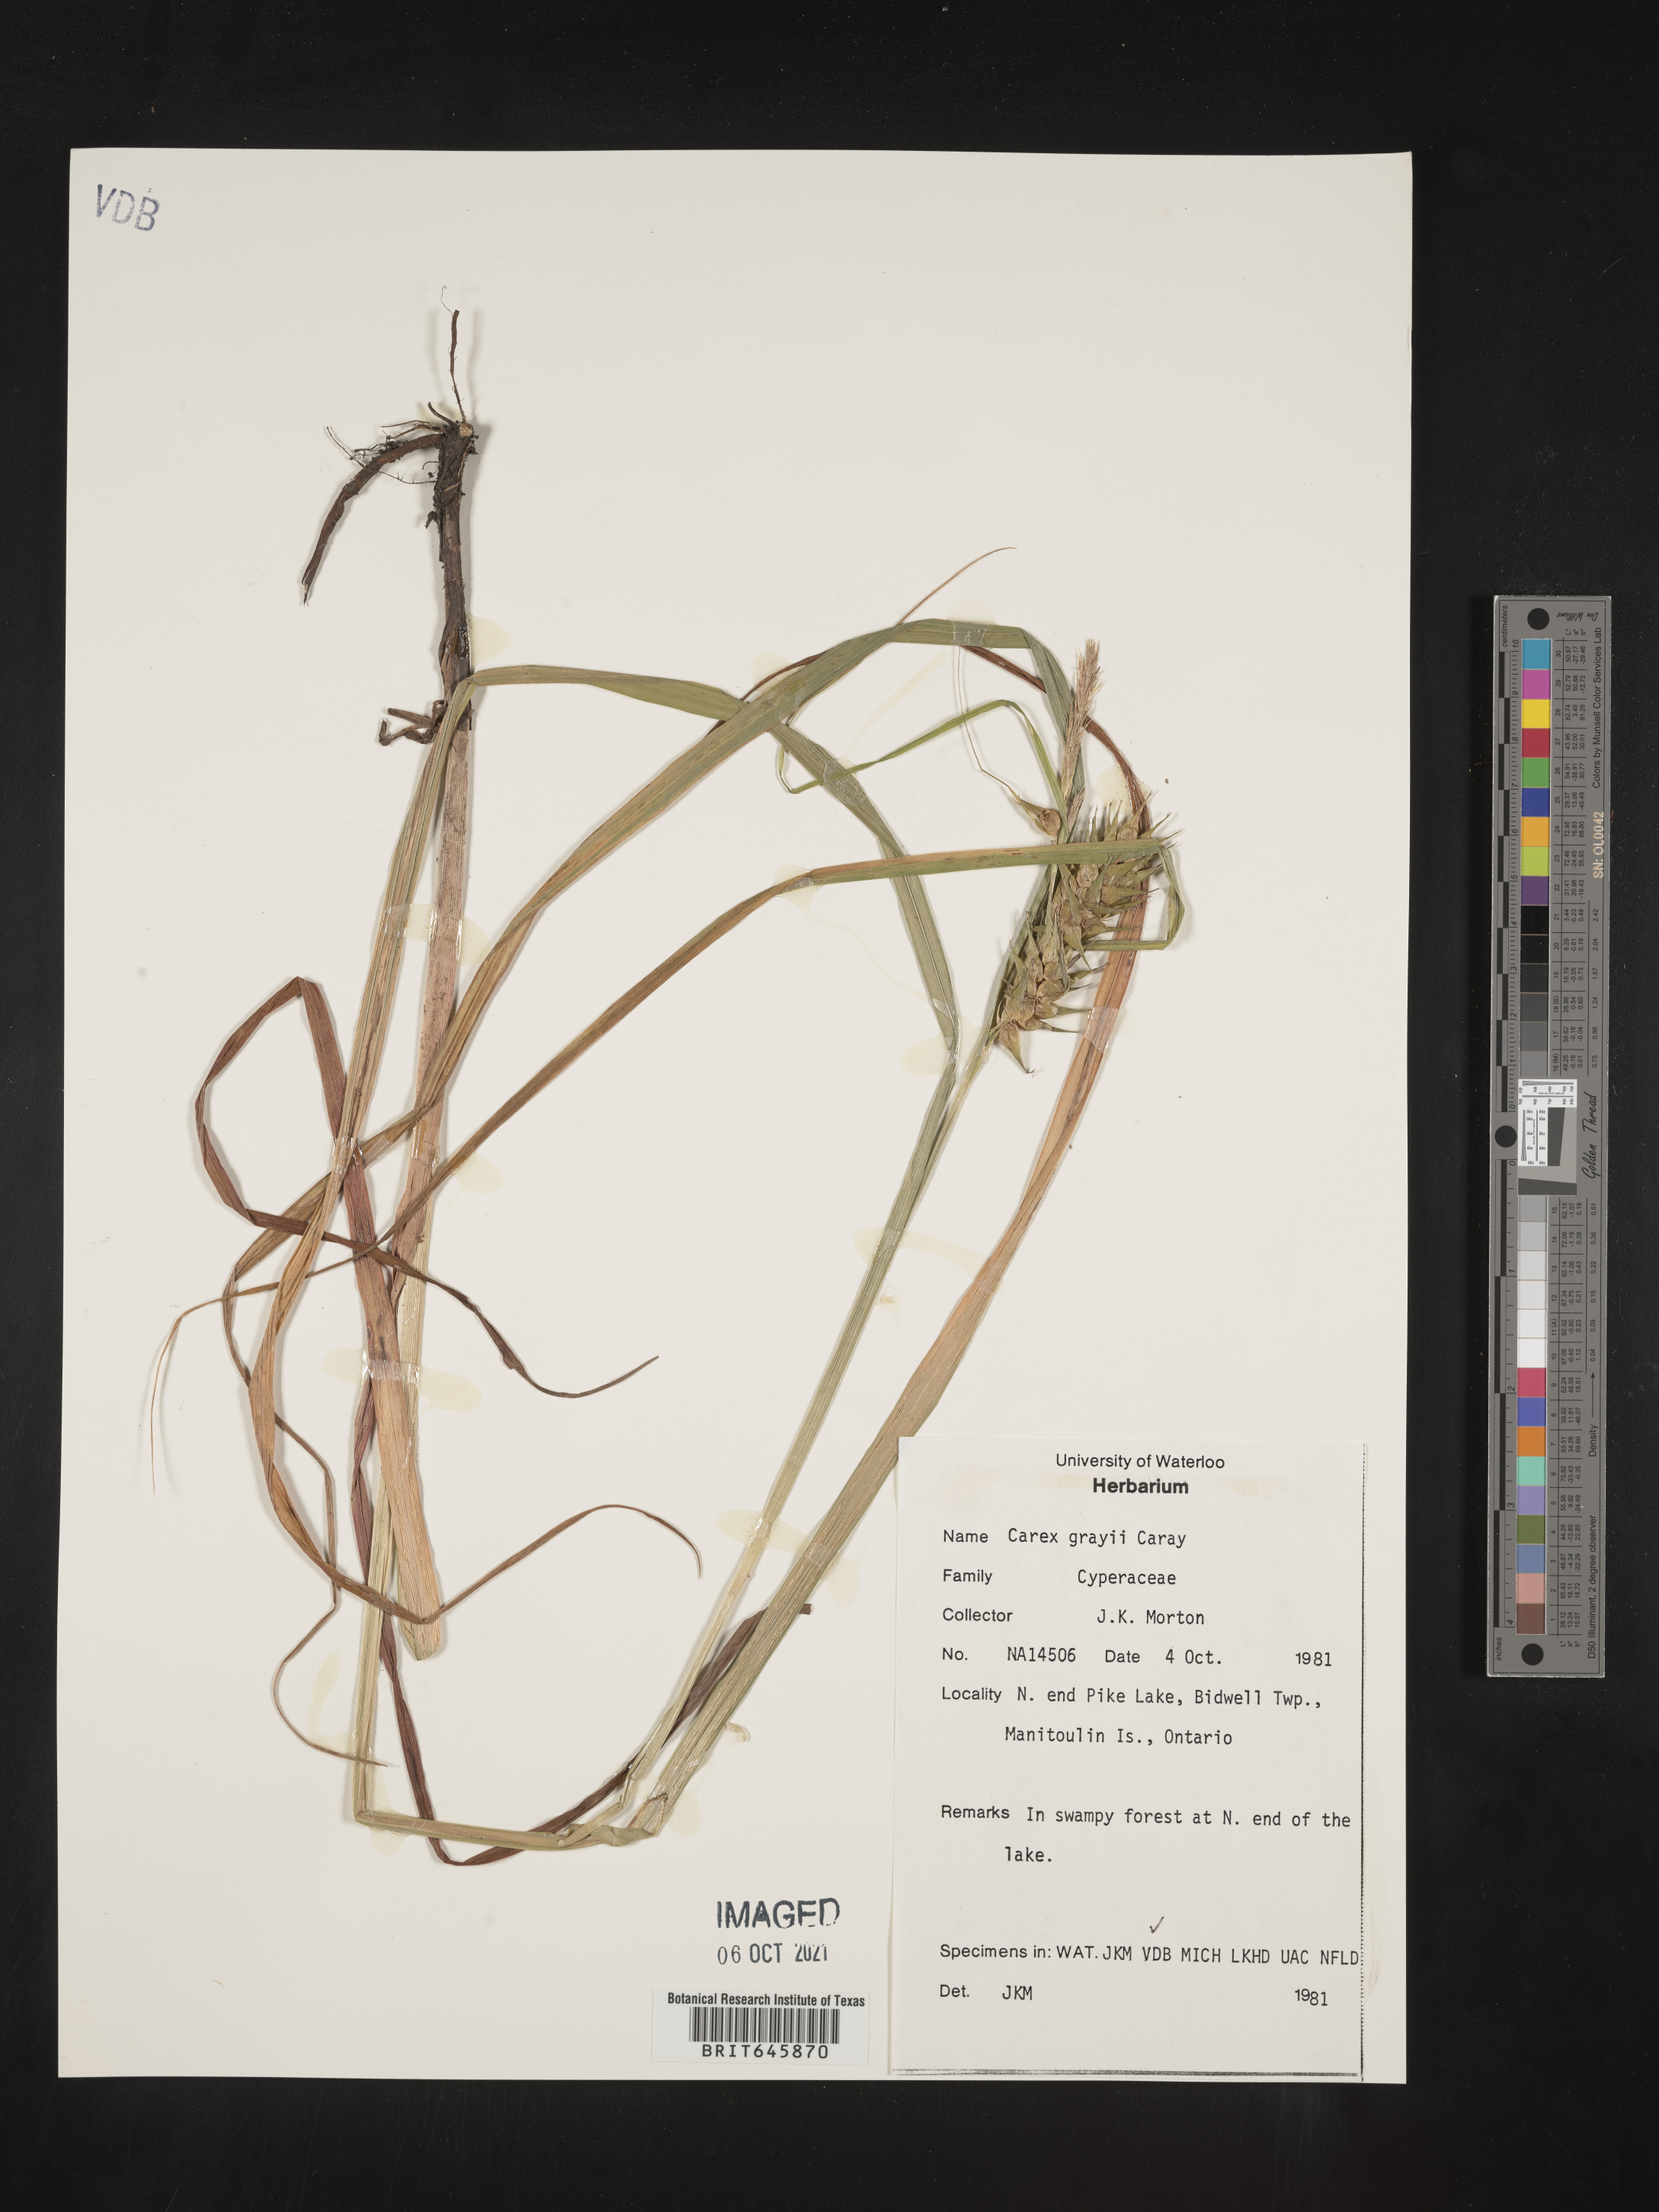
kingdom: Plantae
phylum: Tracheophyta
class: Liliopsida
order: Poales
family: Cyperaceae
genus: Carex
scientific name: Carex grayi
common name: Asa gray's sedge
